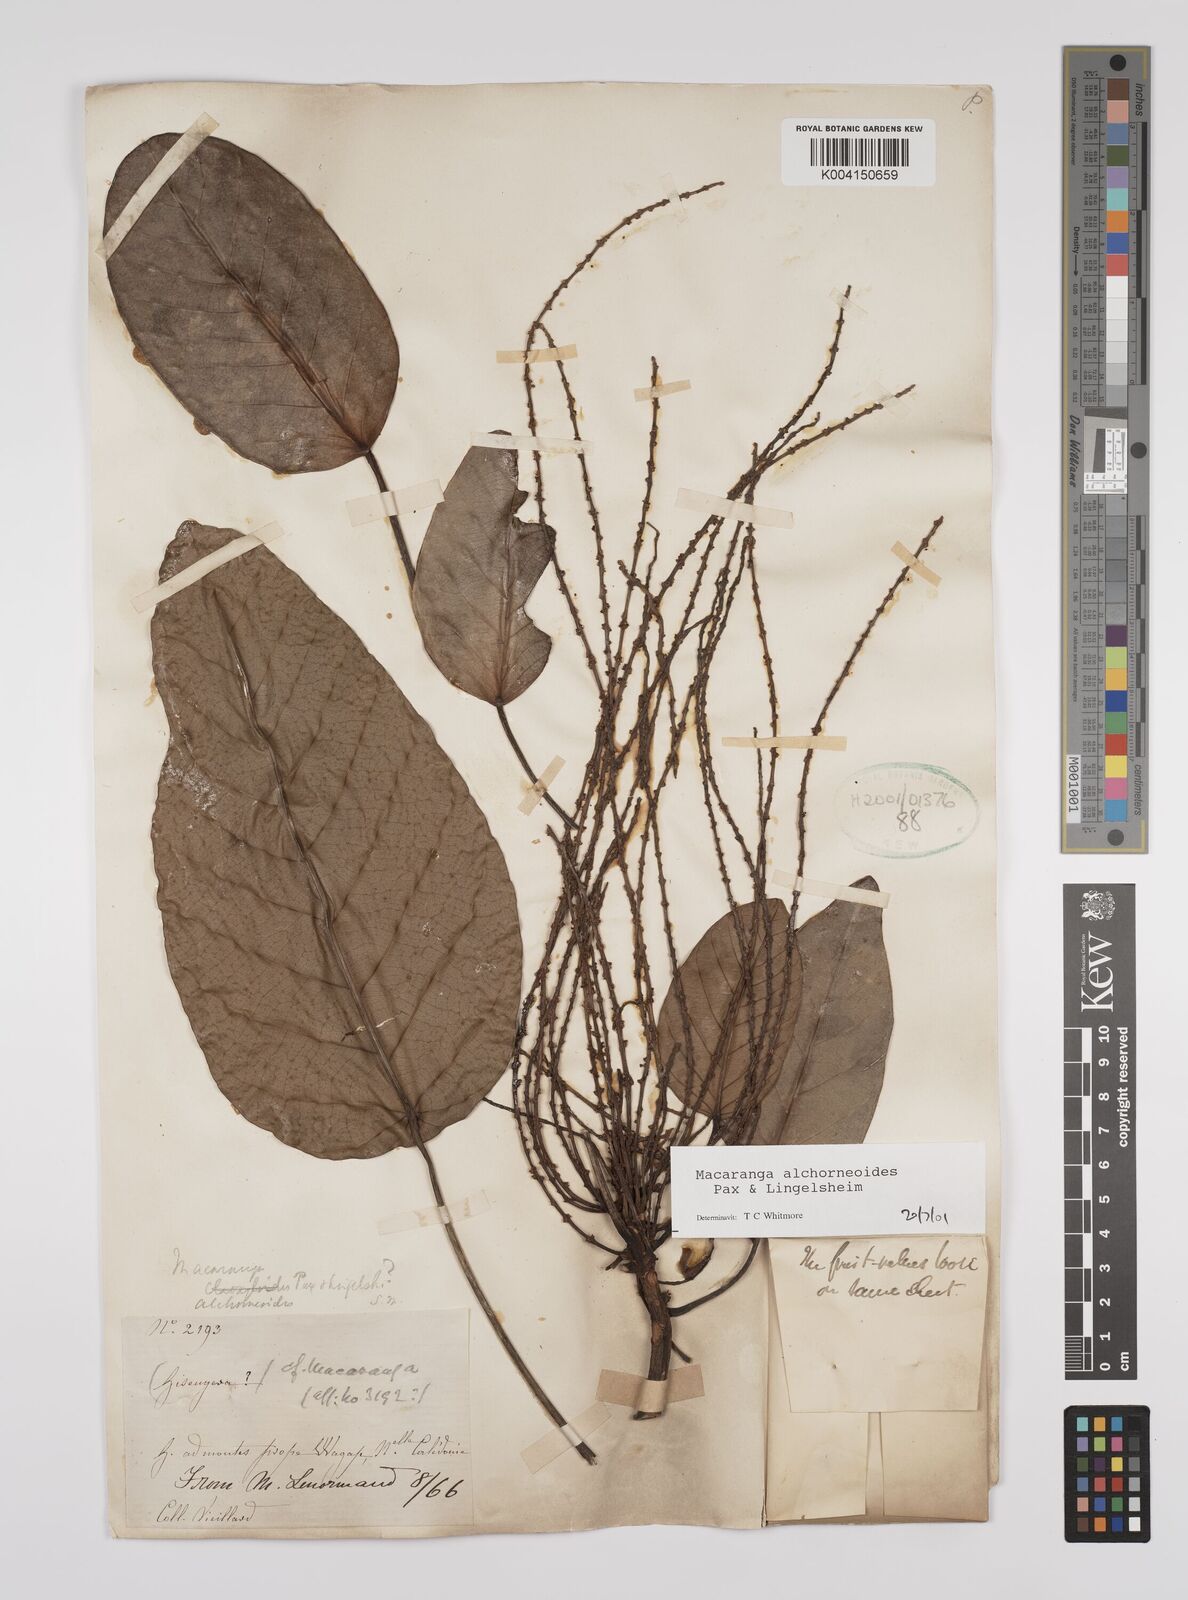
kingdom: Plantae
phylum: Tracheophyta
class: Magnoliopsida
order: Malpighiales
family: Euphorbiaceae
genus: Macaranga
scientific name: Macaranga alchorneoides
